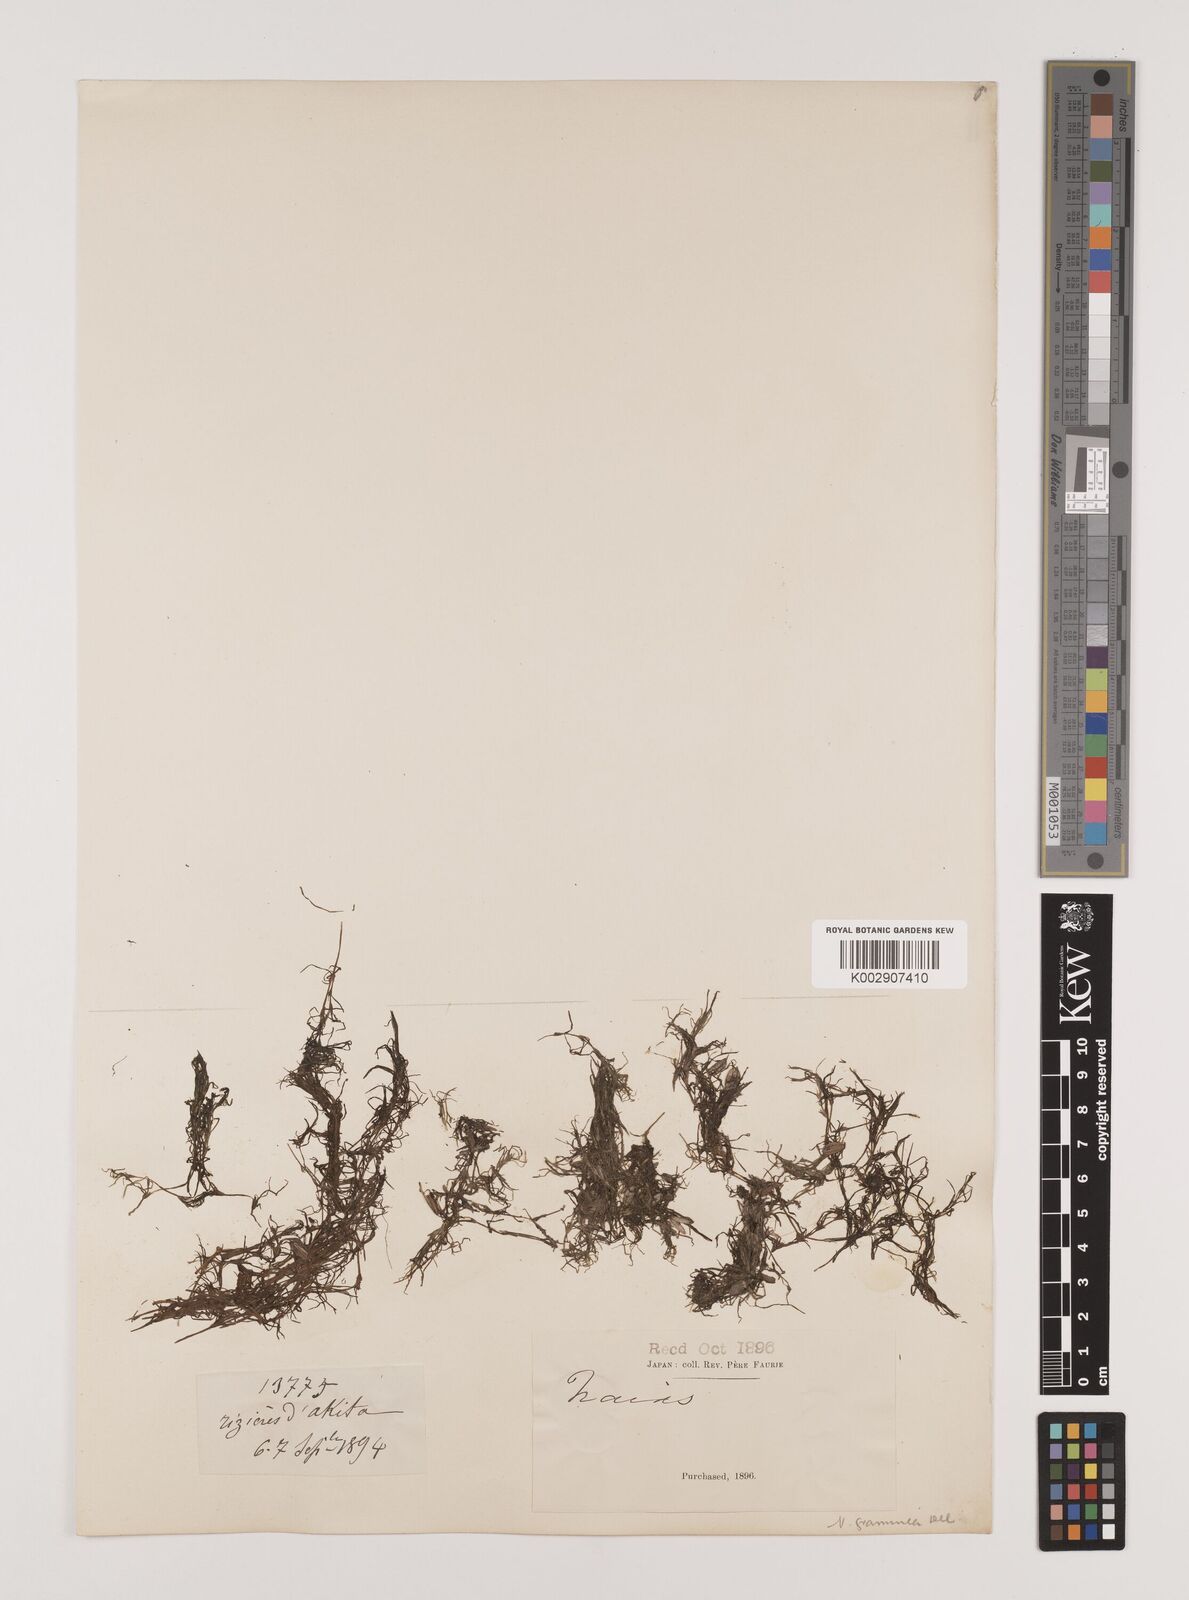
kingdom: Plantae
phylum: Tracheophyta
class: Liliopsida
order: Alismatales
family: Hydrocharitaceae
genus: Najas
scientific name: Najas graminea
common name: Ricefield waternymph
